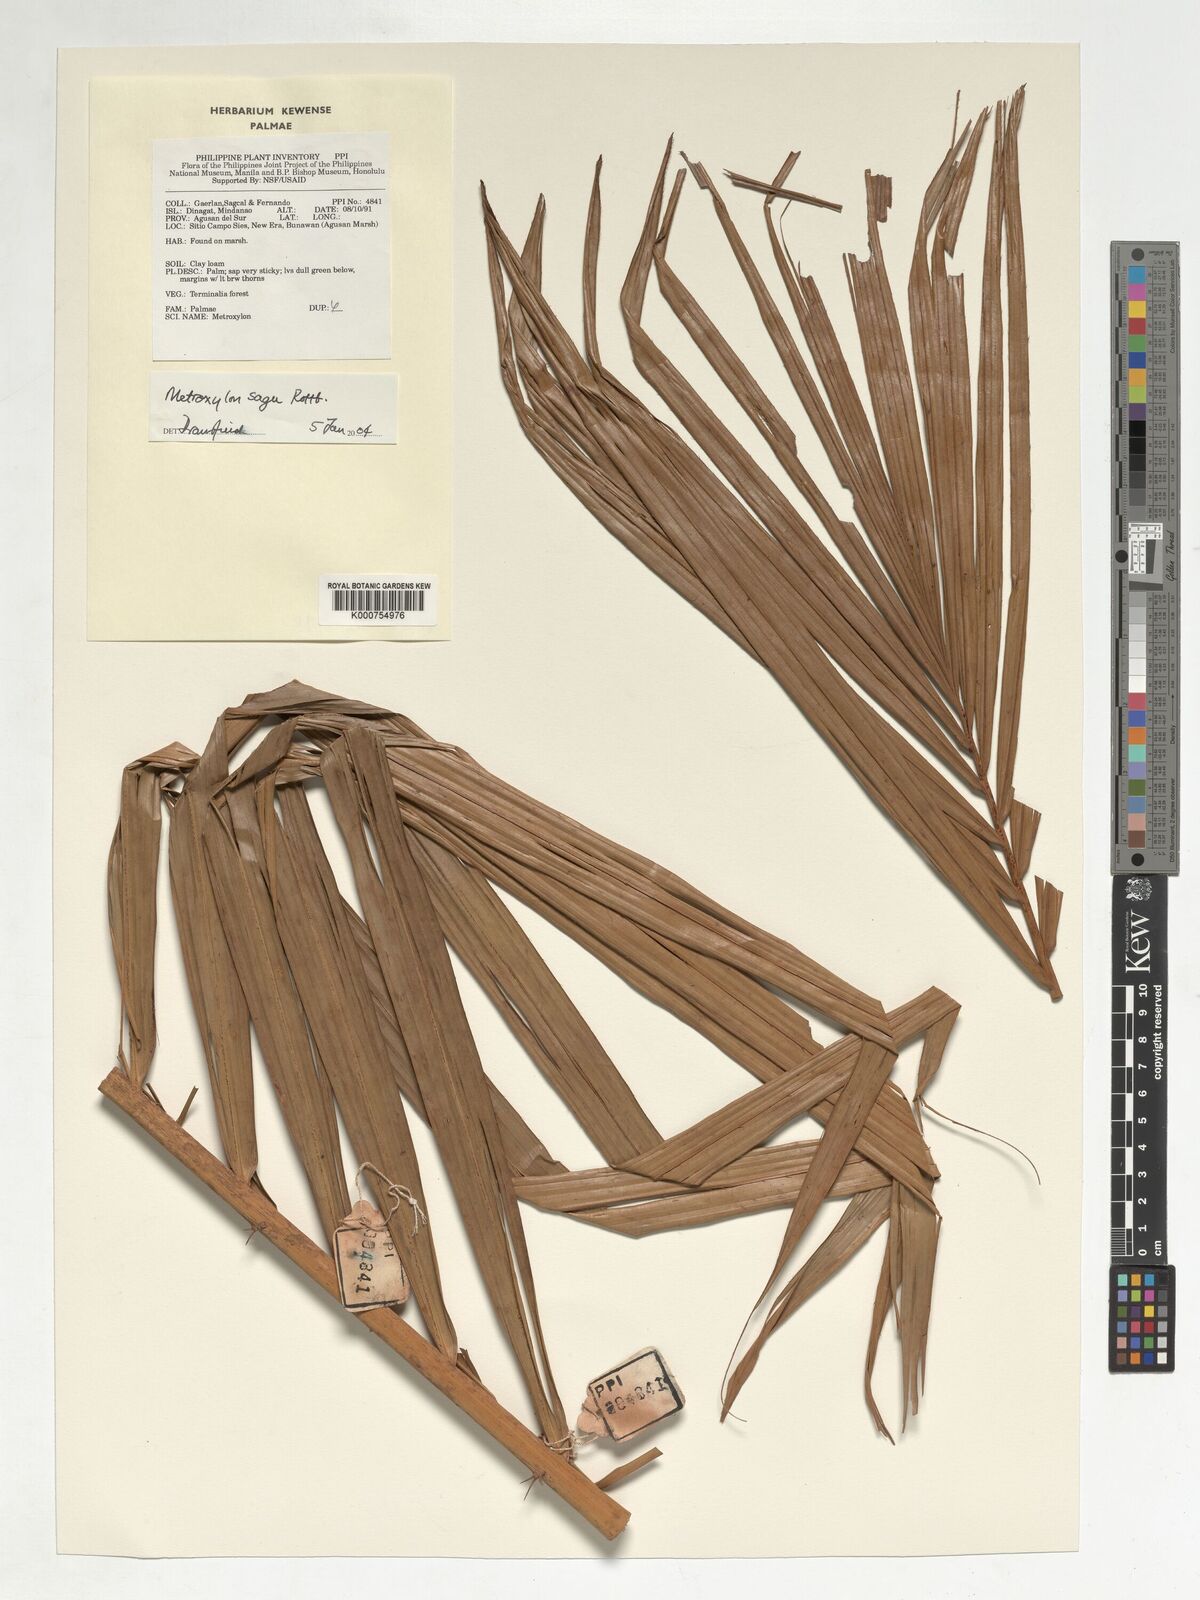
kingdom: Plantae
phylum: Tracheophyta
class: Liliopsida
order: Arecales
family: Arecaceae
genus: Metroxylon
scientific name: Metroxylon sagu
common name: Sago palm
